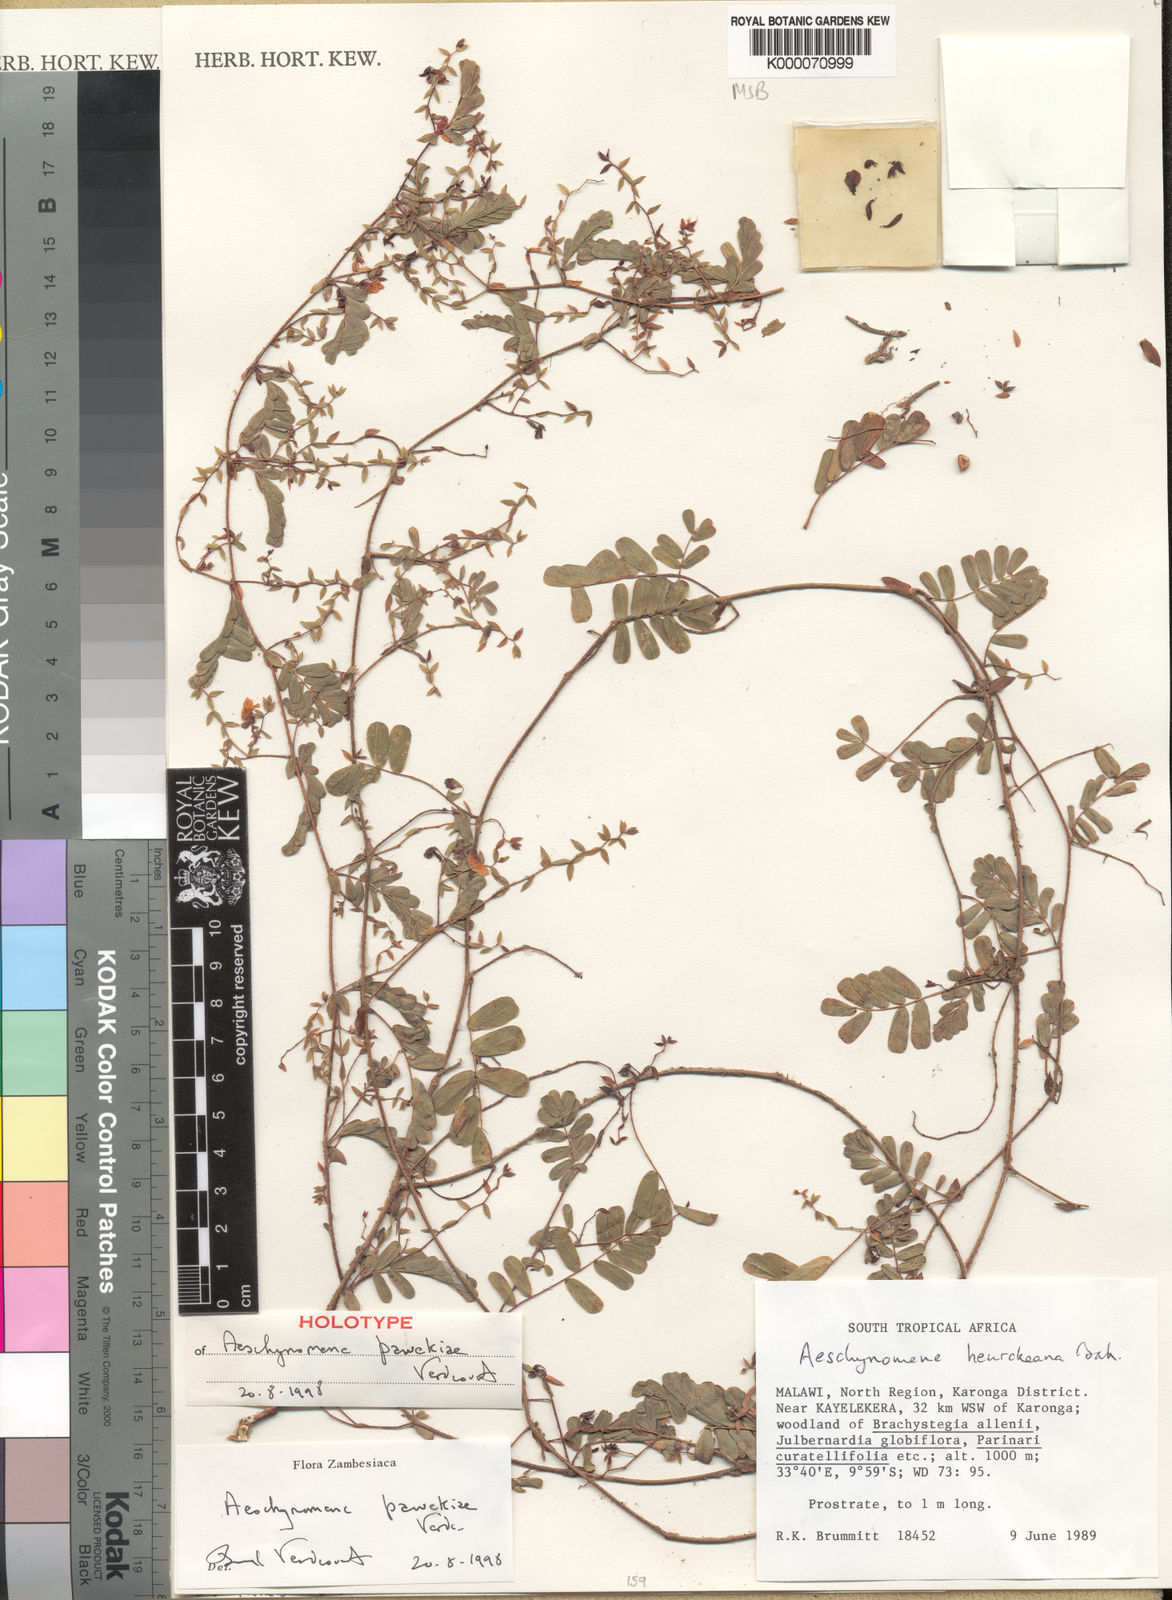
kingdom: Plantae
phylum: Tracheophyta
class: Magnoliopsida
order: Fabales
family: Fabaceae
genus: Aeschynomene
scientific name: Aeschynomene pawekiae
